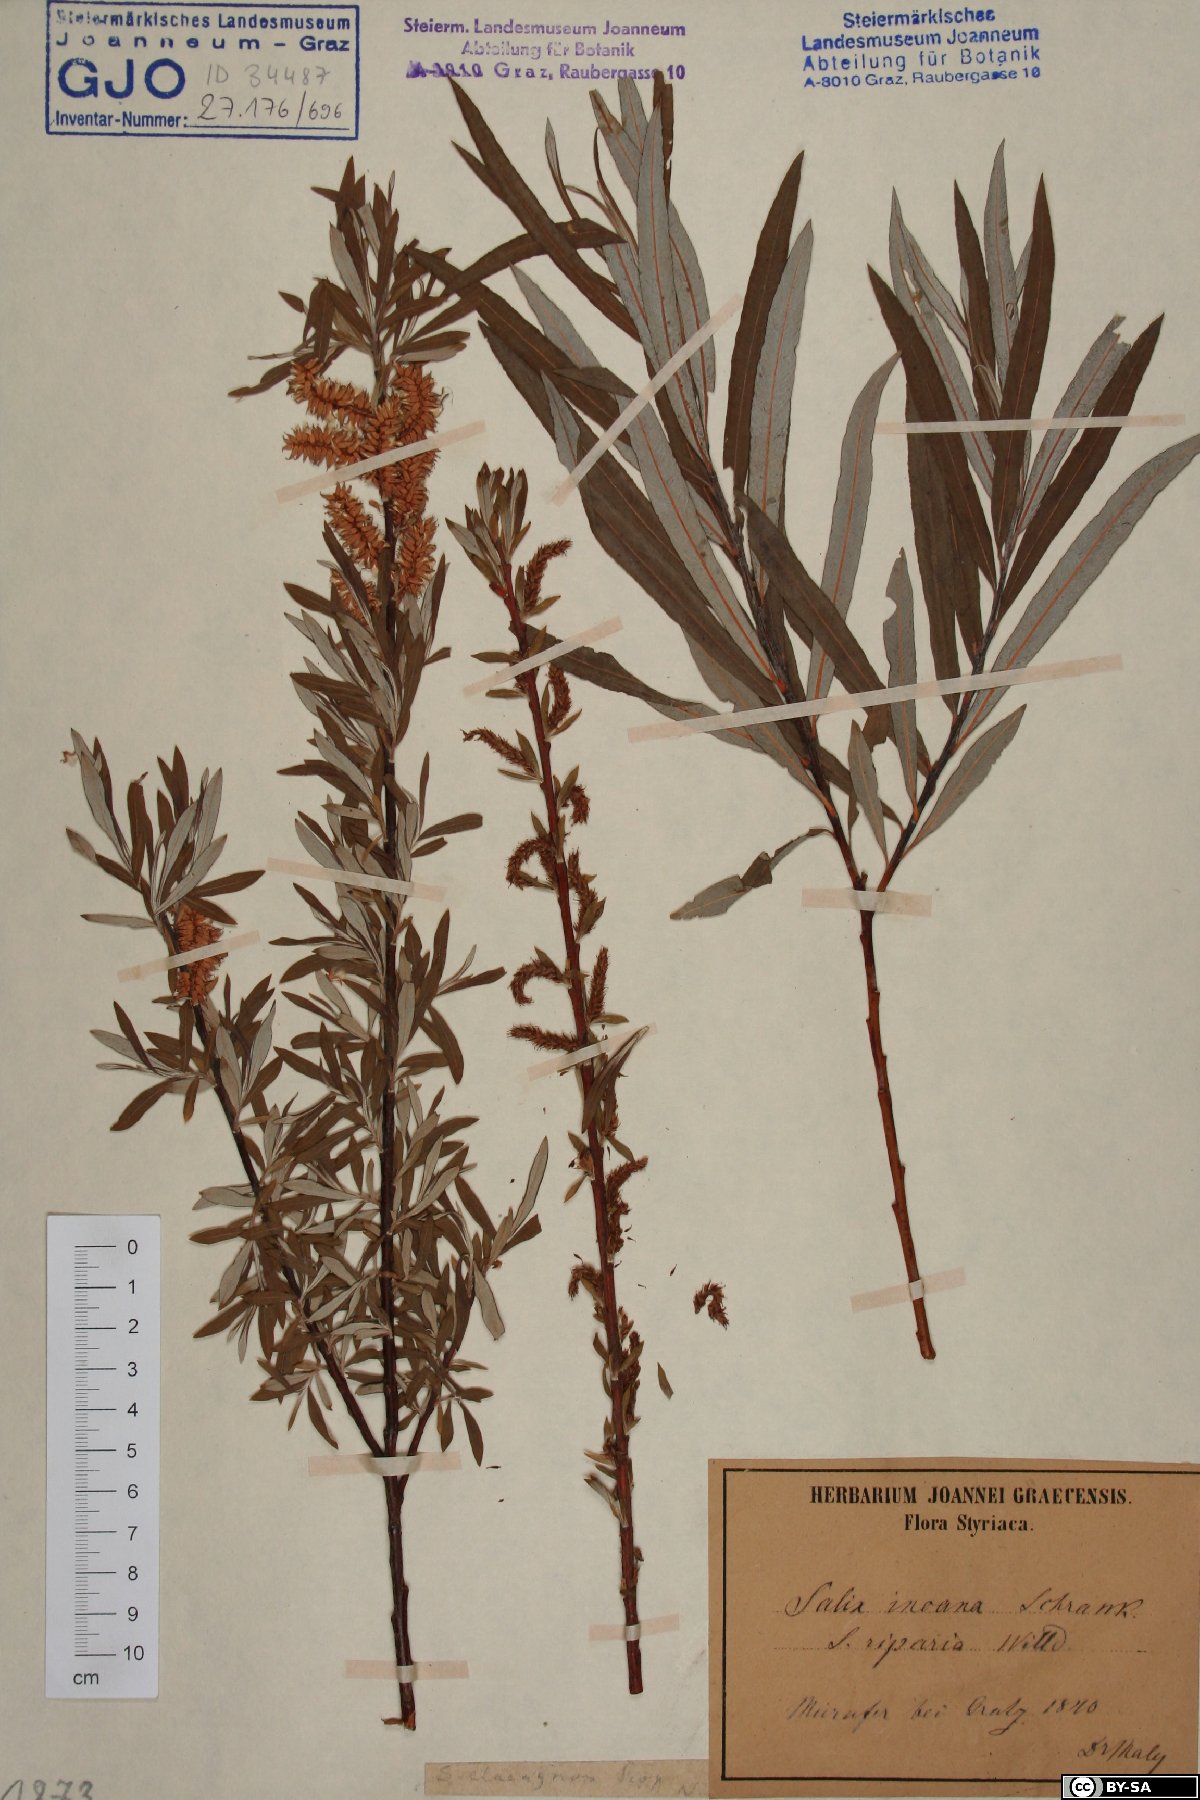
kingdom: Plantae
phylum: Tracheophyta
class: Magnoliopsida
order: Malpighiales
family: Salicaceae
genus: Salix
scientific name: Salix eleagnos
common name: Elaeagnus willow
